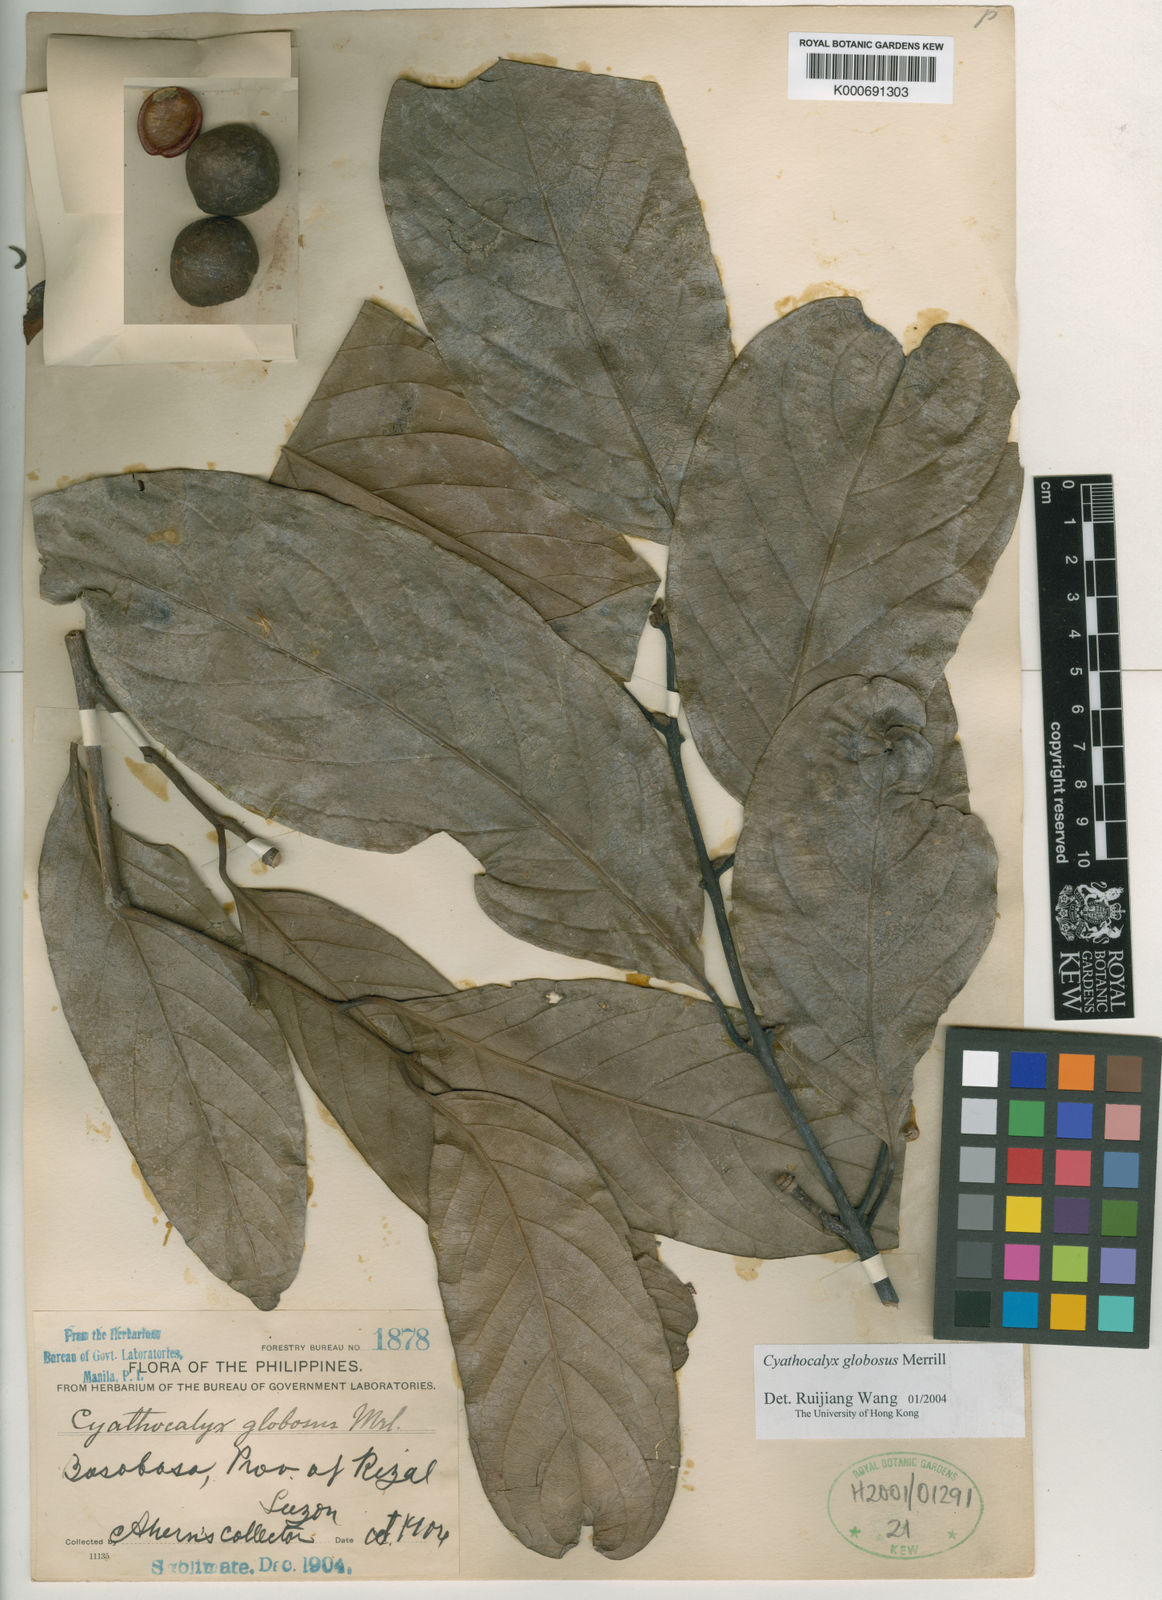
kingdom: Plantae
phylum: Tracheophyta
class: Magnoliopsida
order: Magnoliales
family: Annonaceae
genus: Cyathocalyx
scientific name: Cyathocalyx globosus
